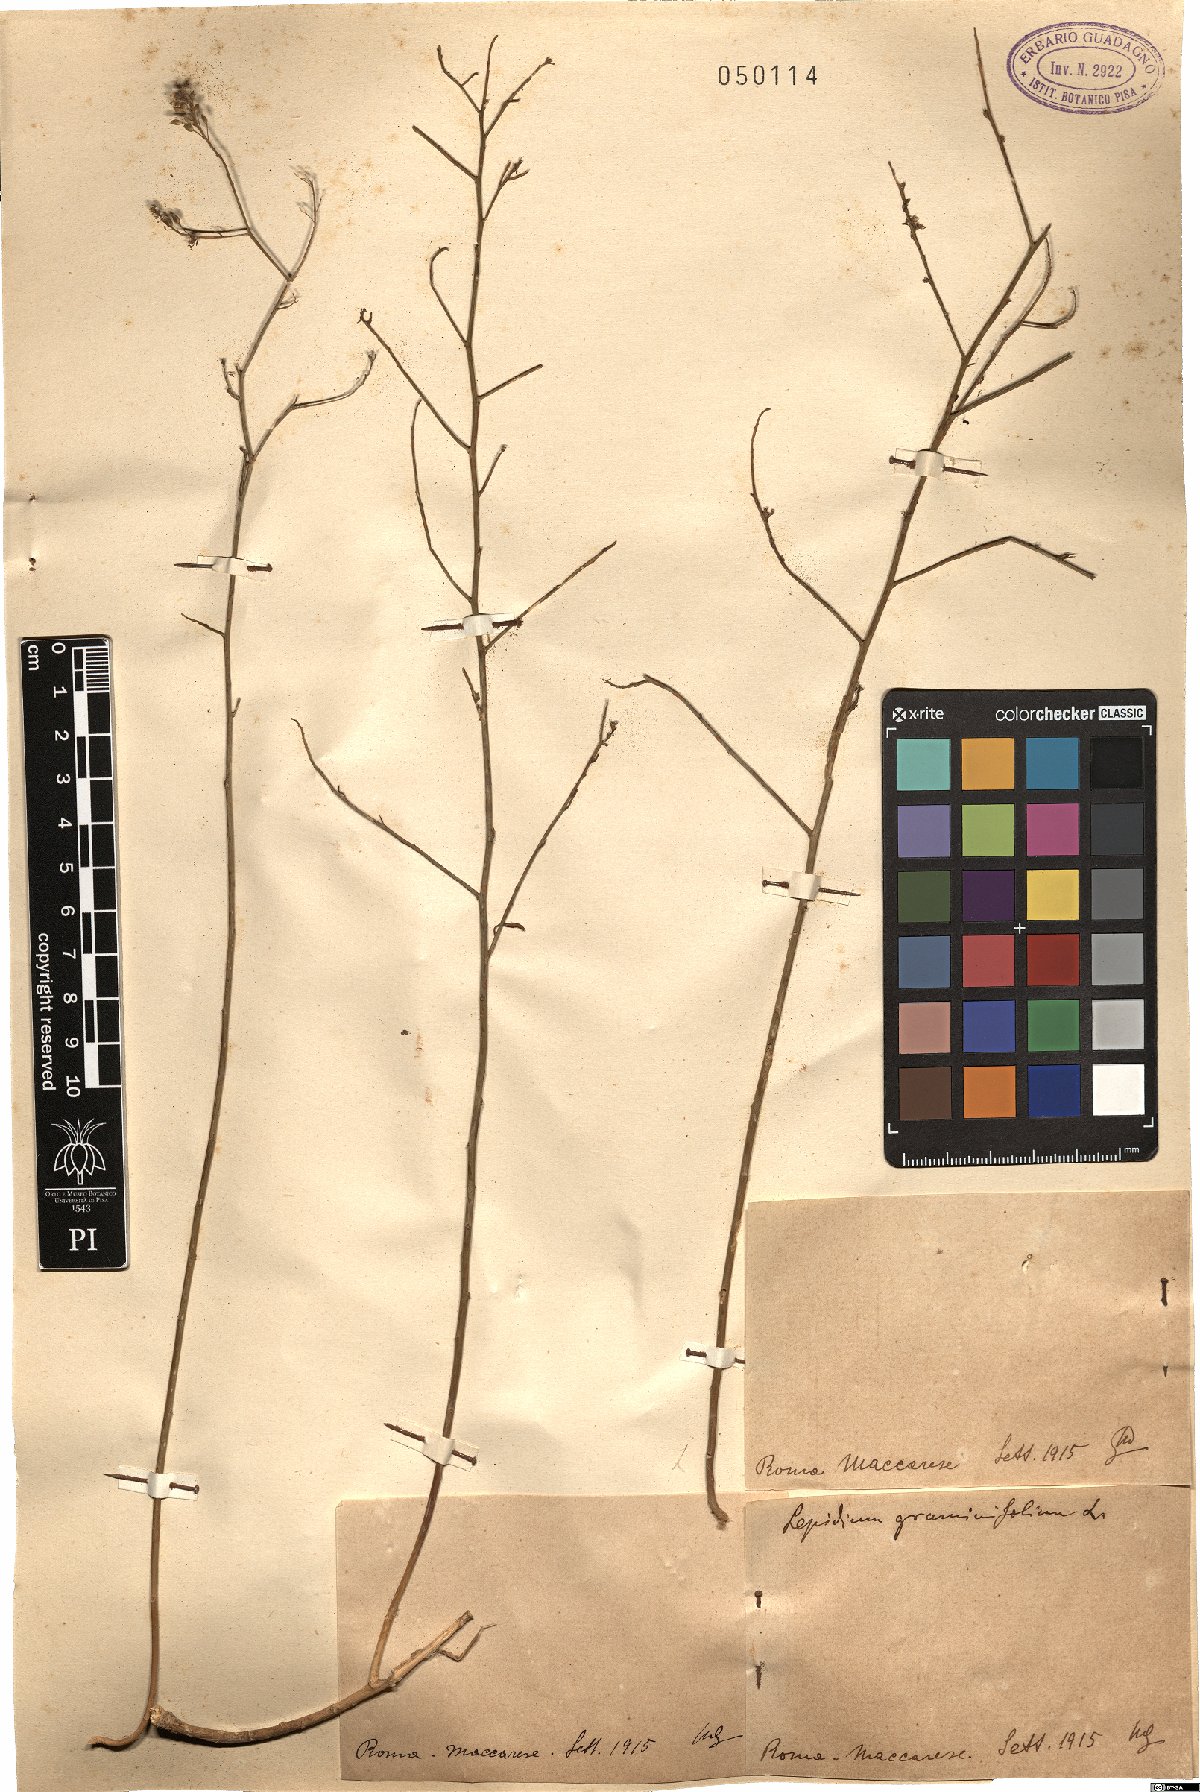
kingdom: Plantae
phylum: Tracheophyta
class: Magnoliopsida
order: Brassicales
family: Brassicaceae
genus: Lepidium
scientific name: Lepidium graminifolium
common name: Tall pepperwort
